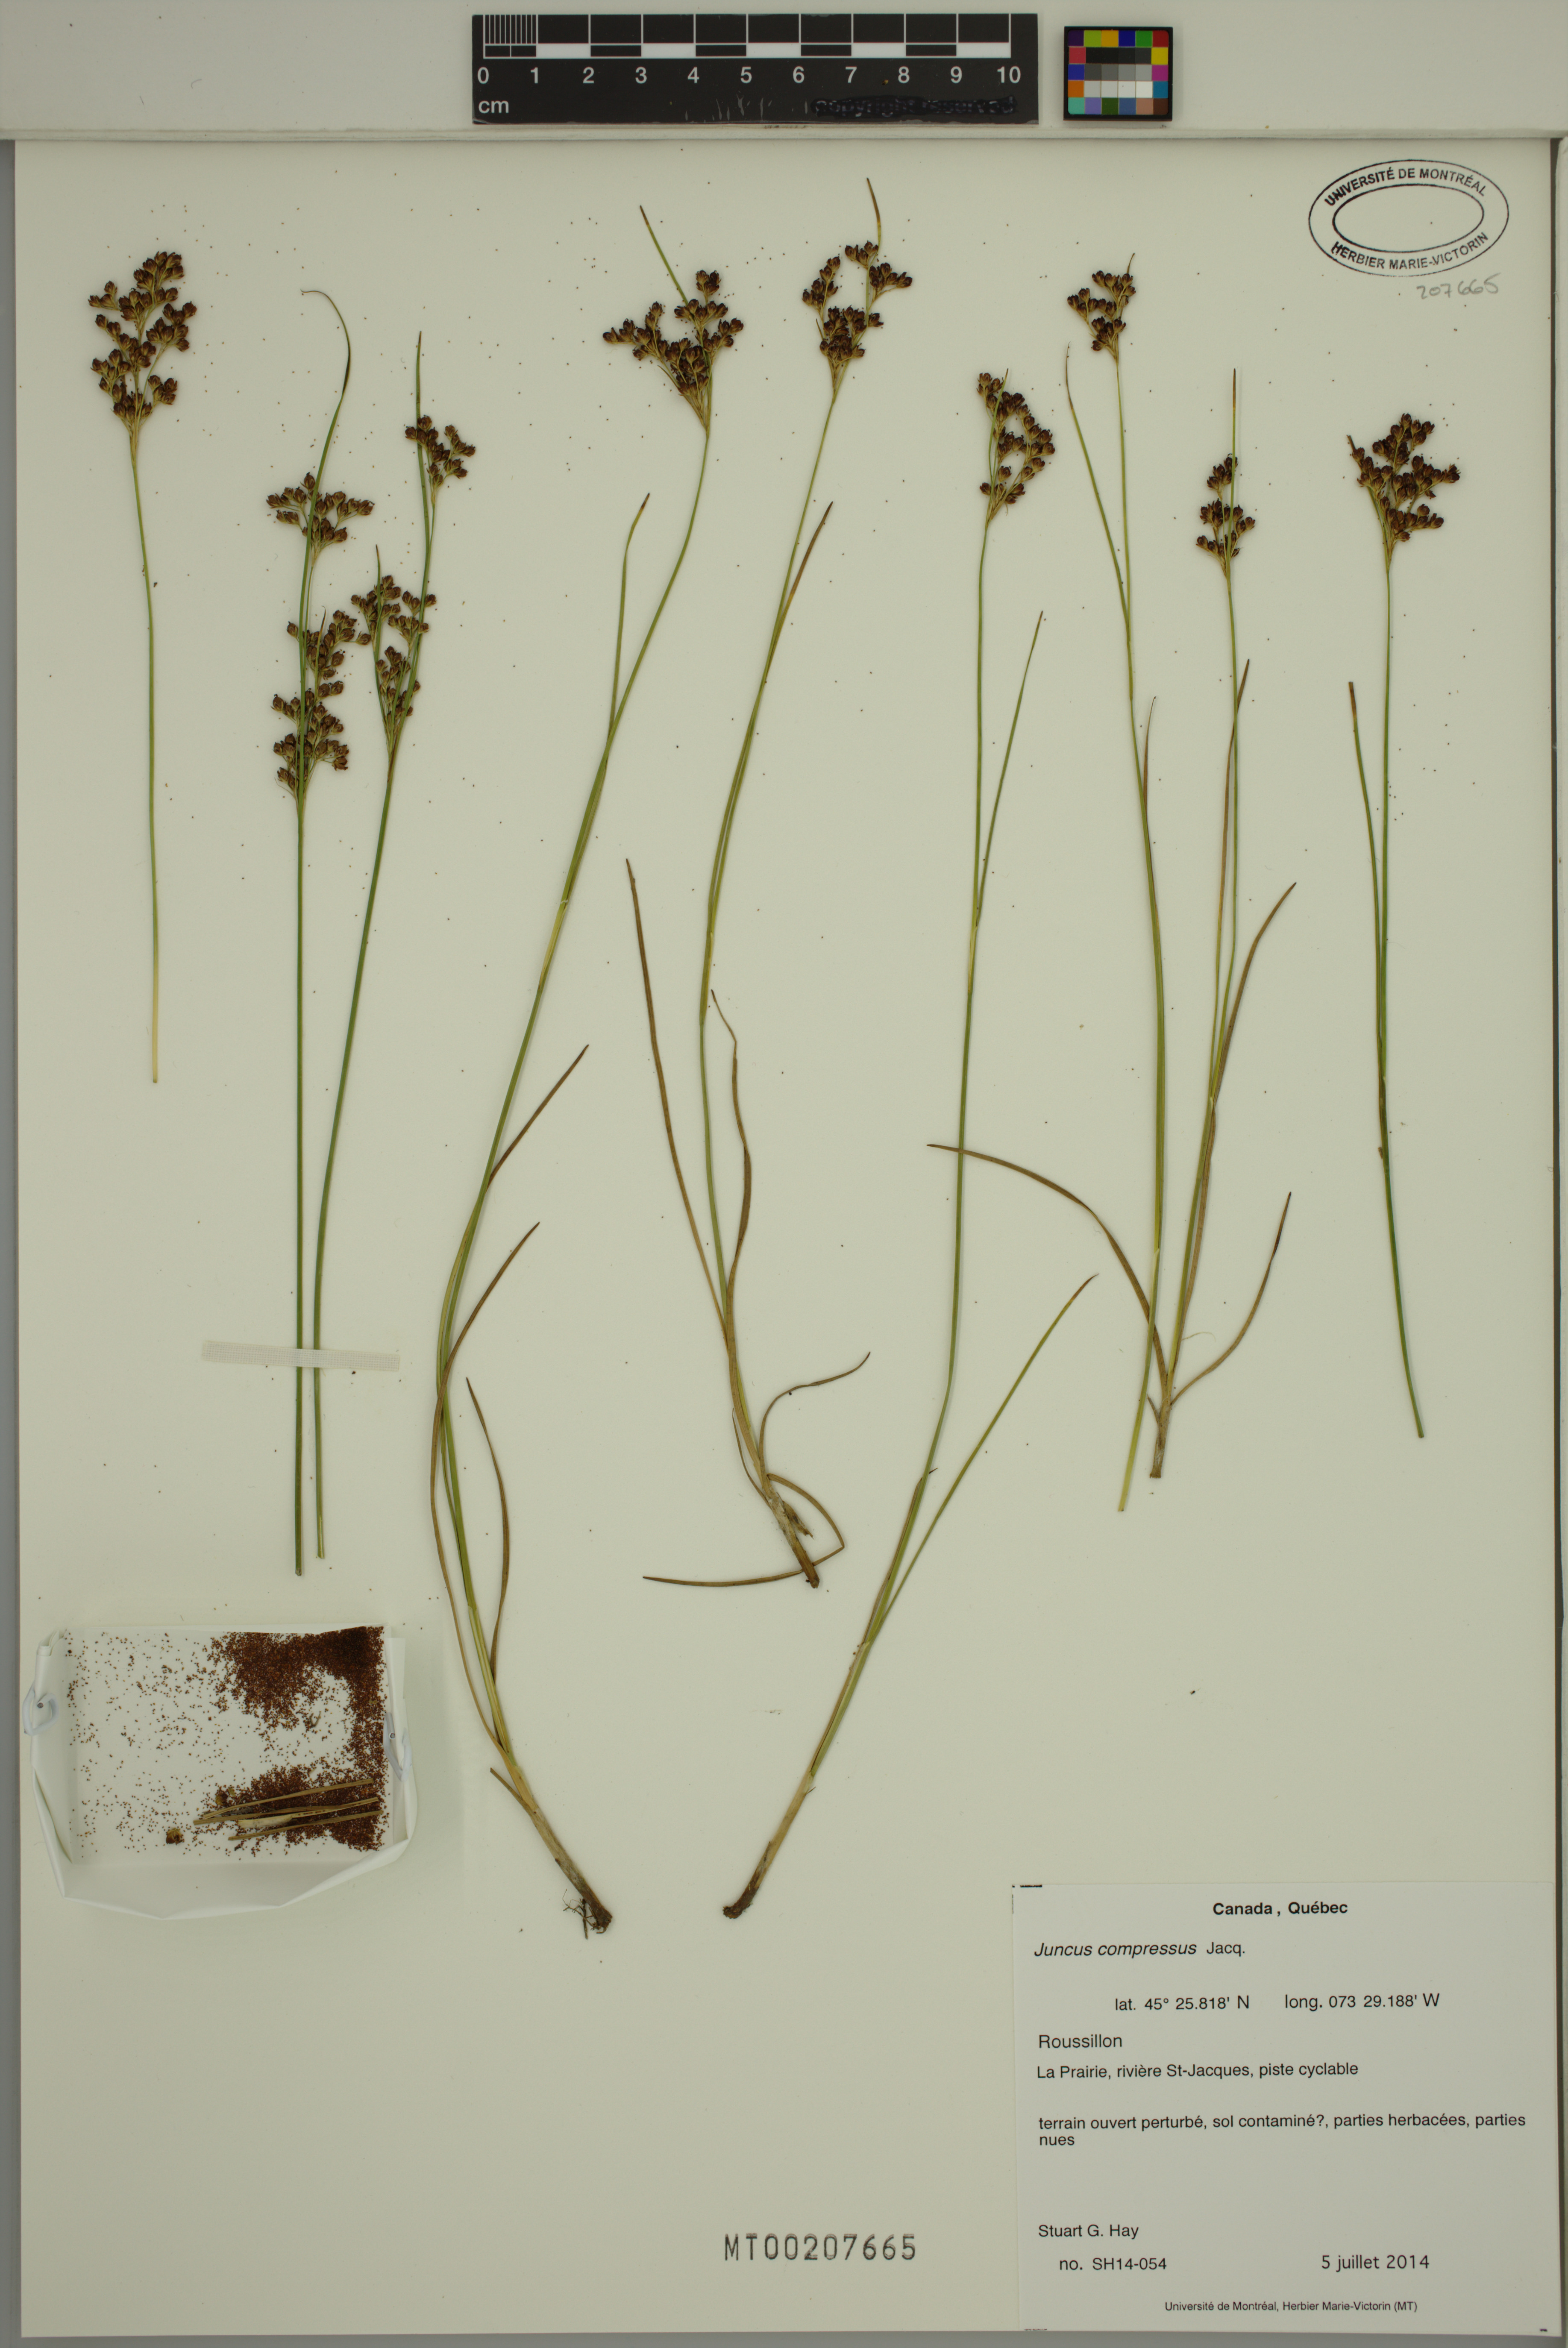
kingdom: Plantae
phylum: Tracheophyta
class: Liliopsida
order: Poales
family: Juncaceae
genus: Juncus
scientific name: Juncus compressus
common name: Round-fruited rush
